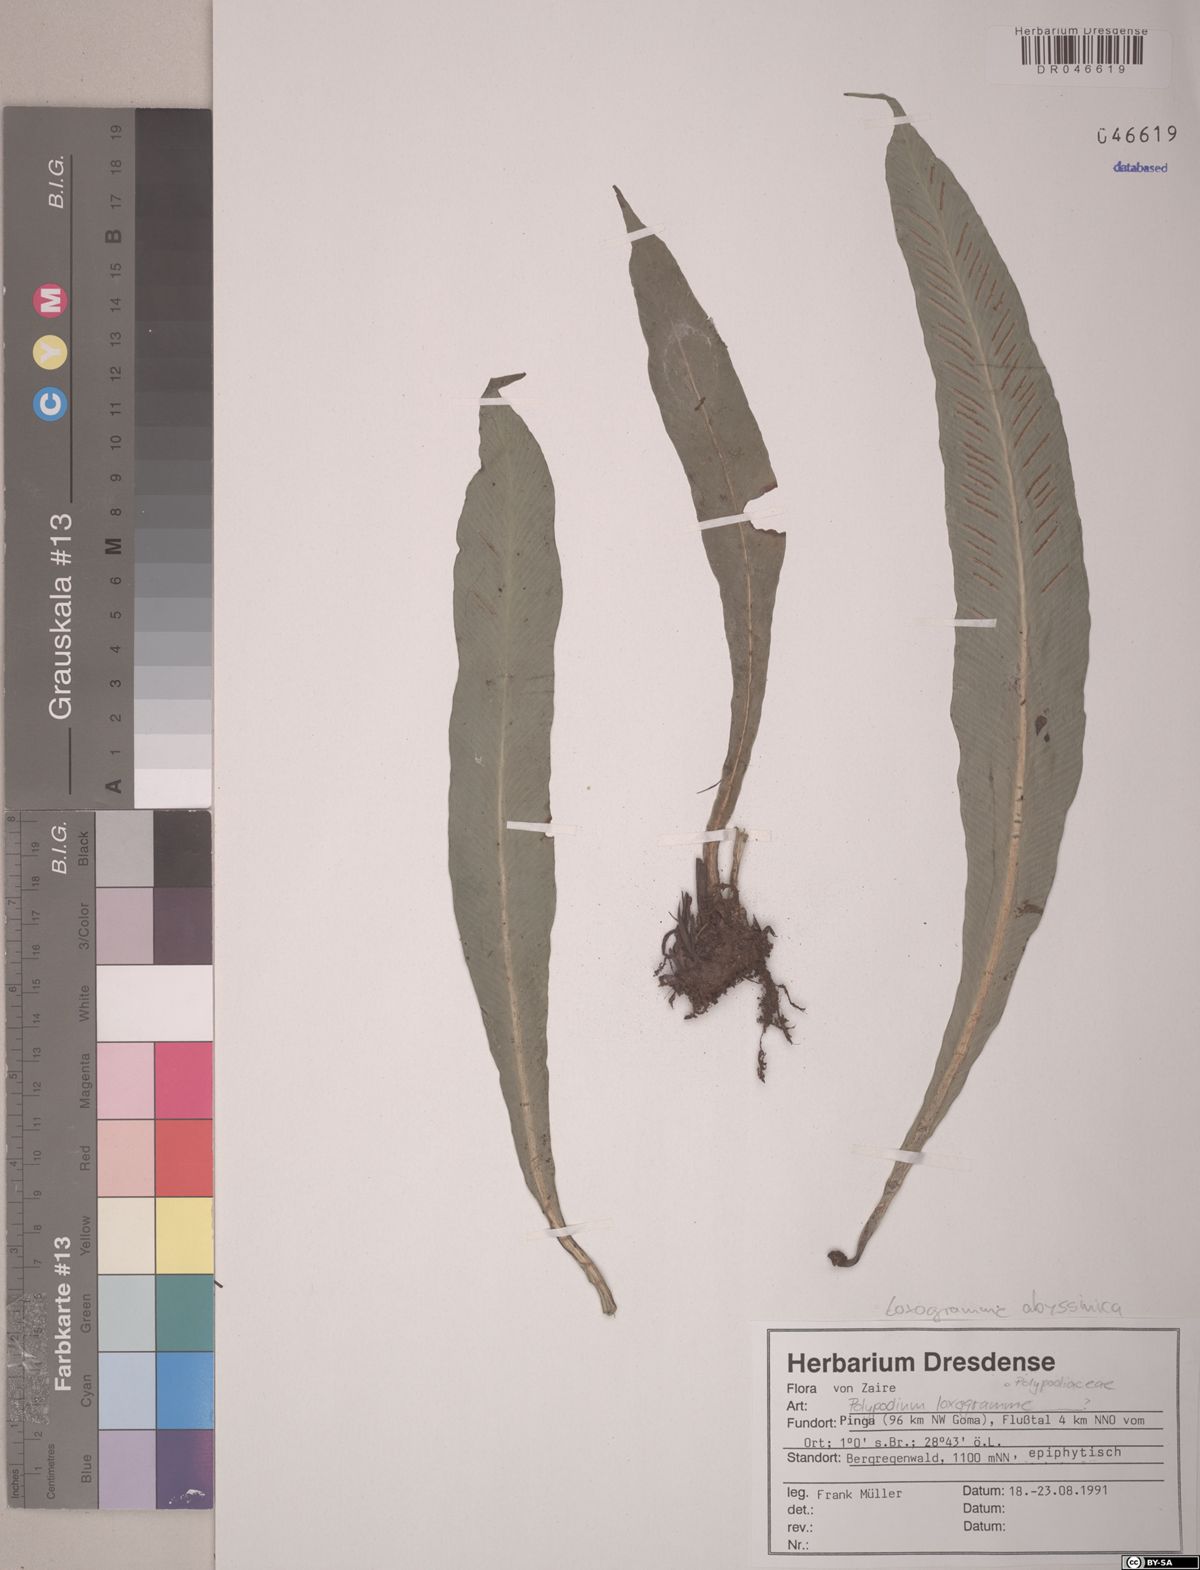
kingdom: Plantae
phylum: Tracheophyta
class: Polypodiopsida
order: Polypodiales
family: Polypodiaceae
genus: Loxogramme
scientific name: Loxogramme abyssinica
